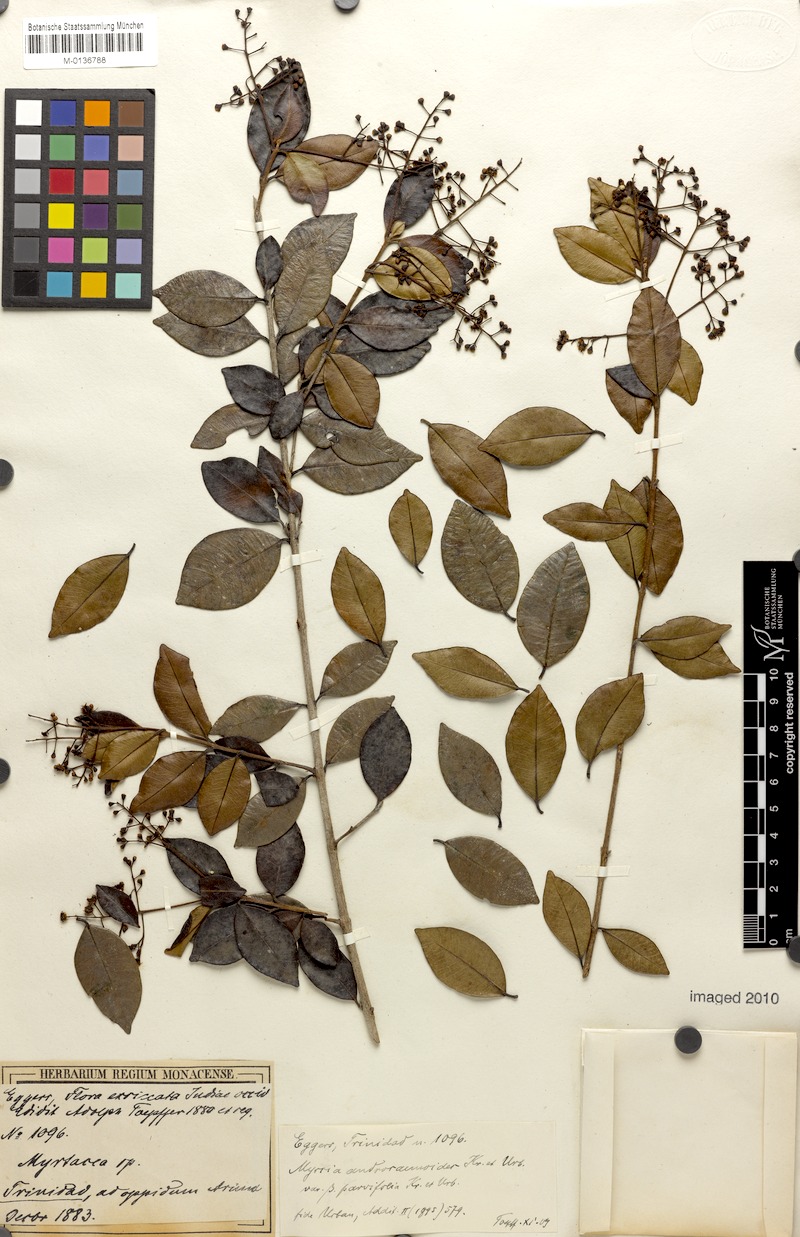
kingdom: Plantae
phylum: Tracheophyta
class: Magnoliopsida
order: Myrtales
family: Myrtaceae
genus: Myrcia
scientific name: Myrcia guianensis
